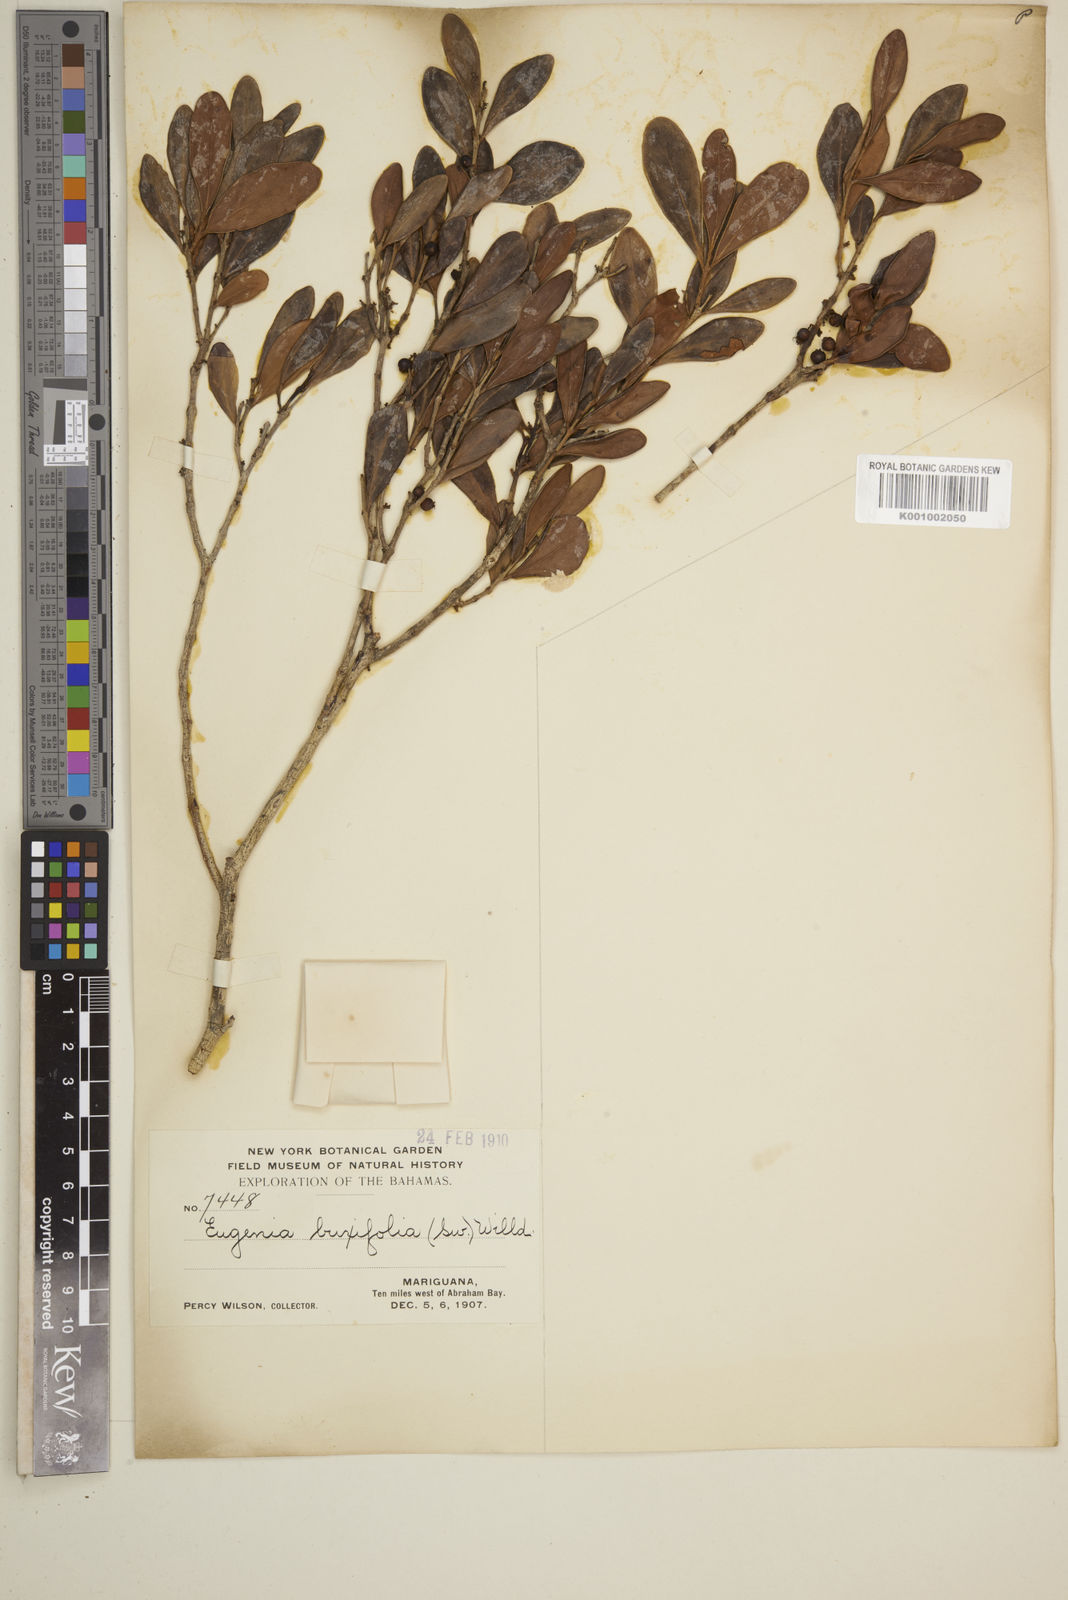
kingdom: Plantae
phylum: Tracheophyta
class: Magnoliopsida
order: Myrtales
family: Myrtaceae
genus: Eugenia
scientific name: Eugenia buxifolia
